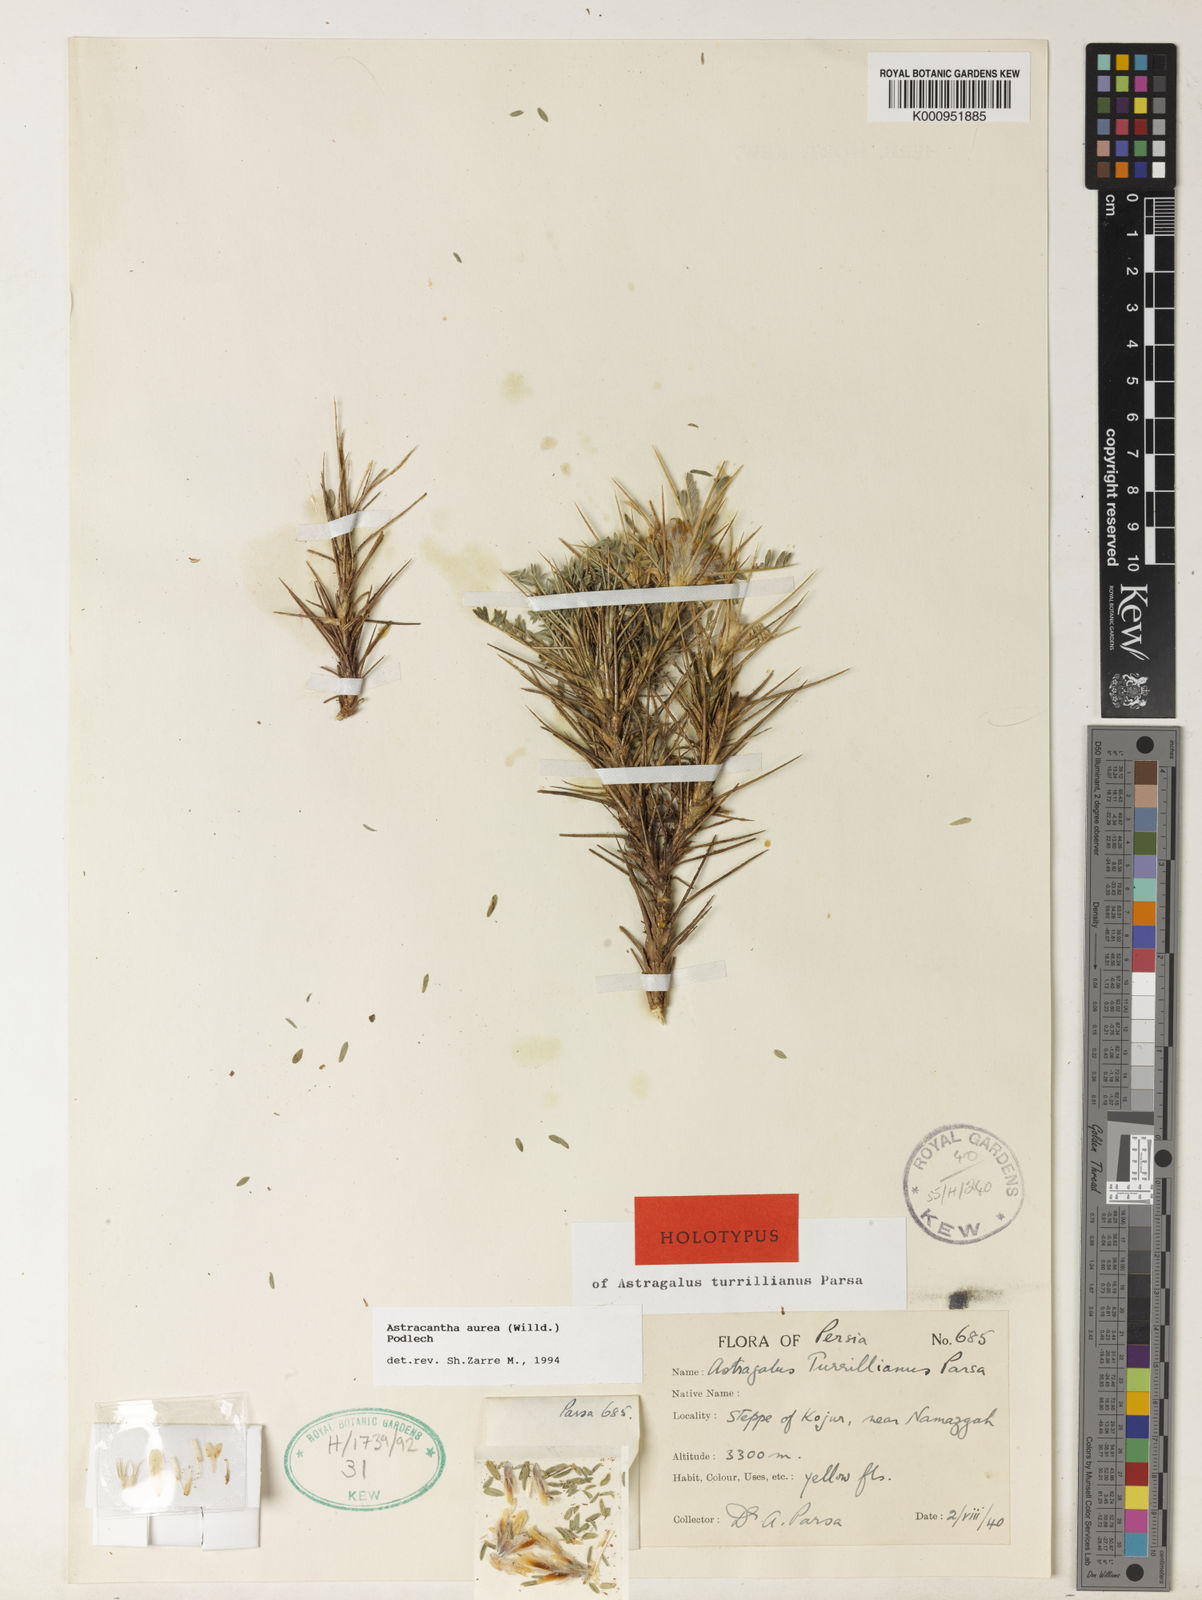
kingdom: Plantae
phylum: Tracheophyta
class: Magnoliopsida
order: Fabales
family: Fabaceae
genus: Astragalus
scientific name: Astragalus aureus
